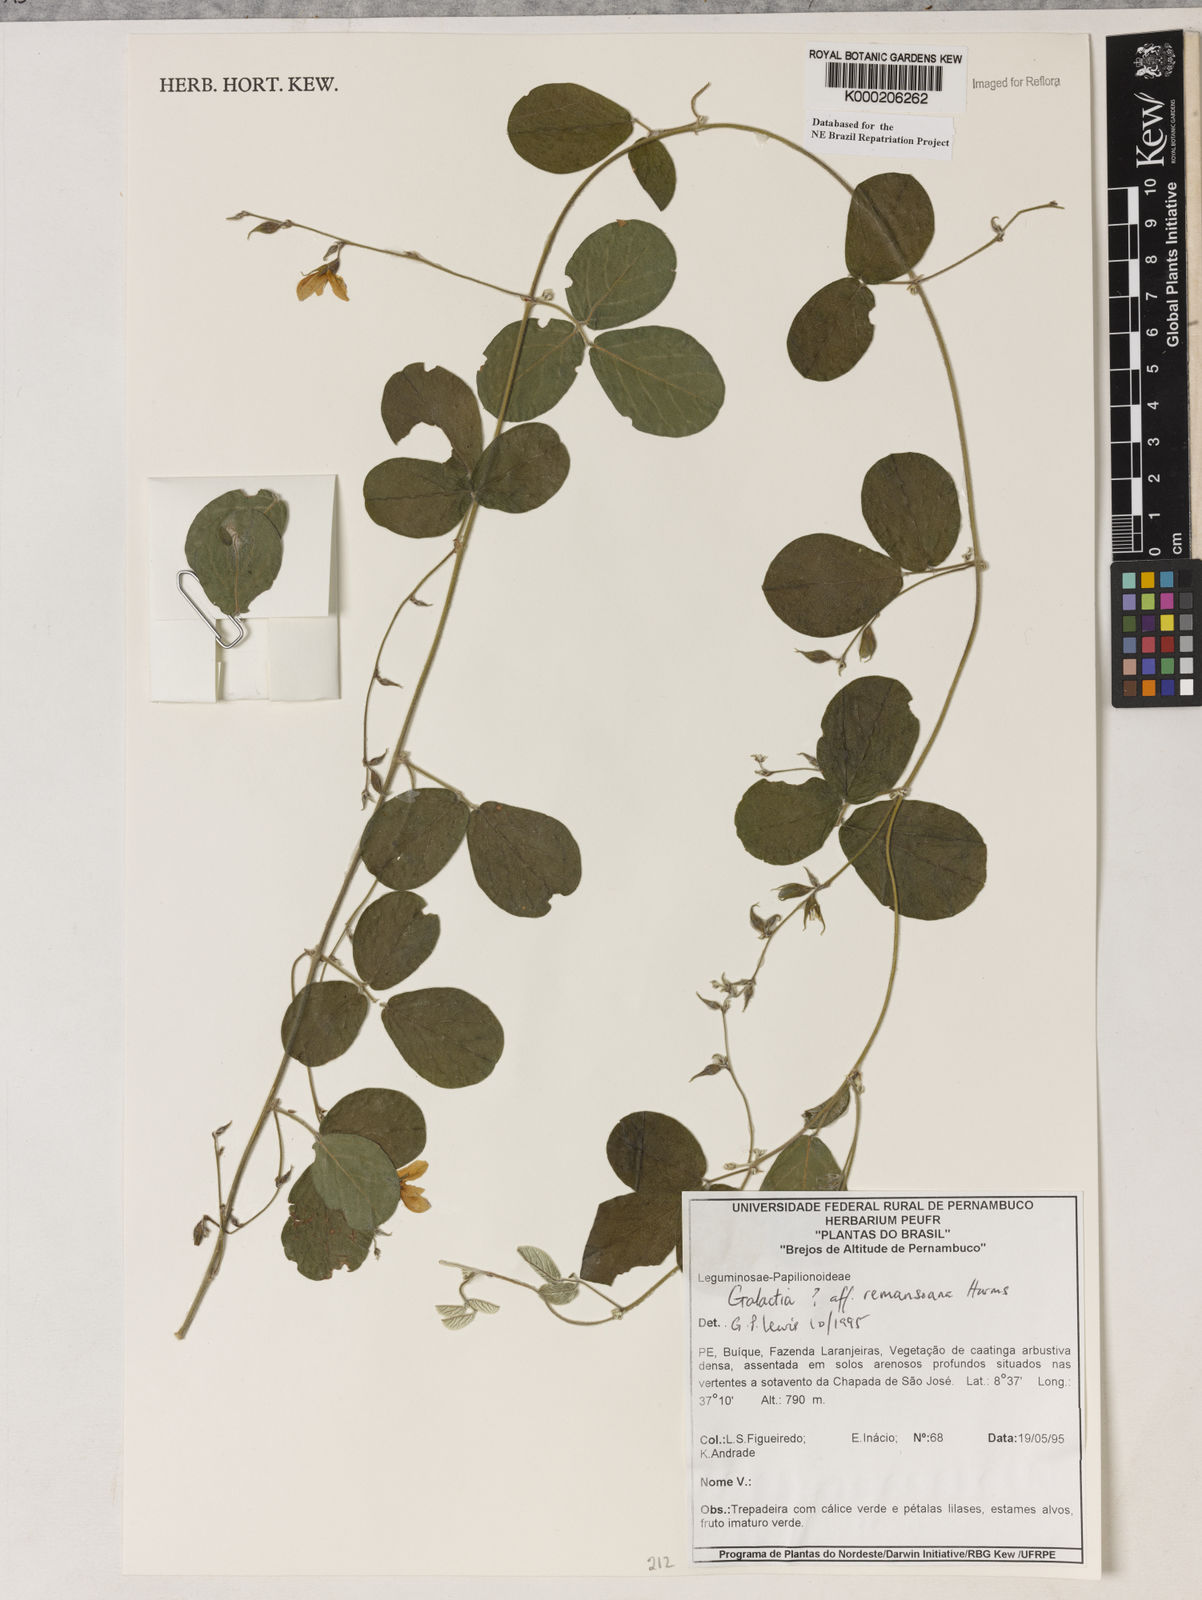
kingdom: Plantae
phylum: Tracheophyta
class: Magnoliopsida
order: Fabales
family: Fabaceae
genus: Galactia
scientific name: Galactia remansoana
